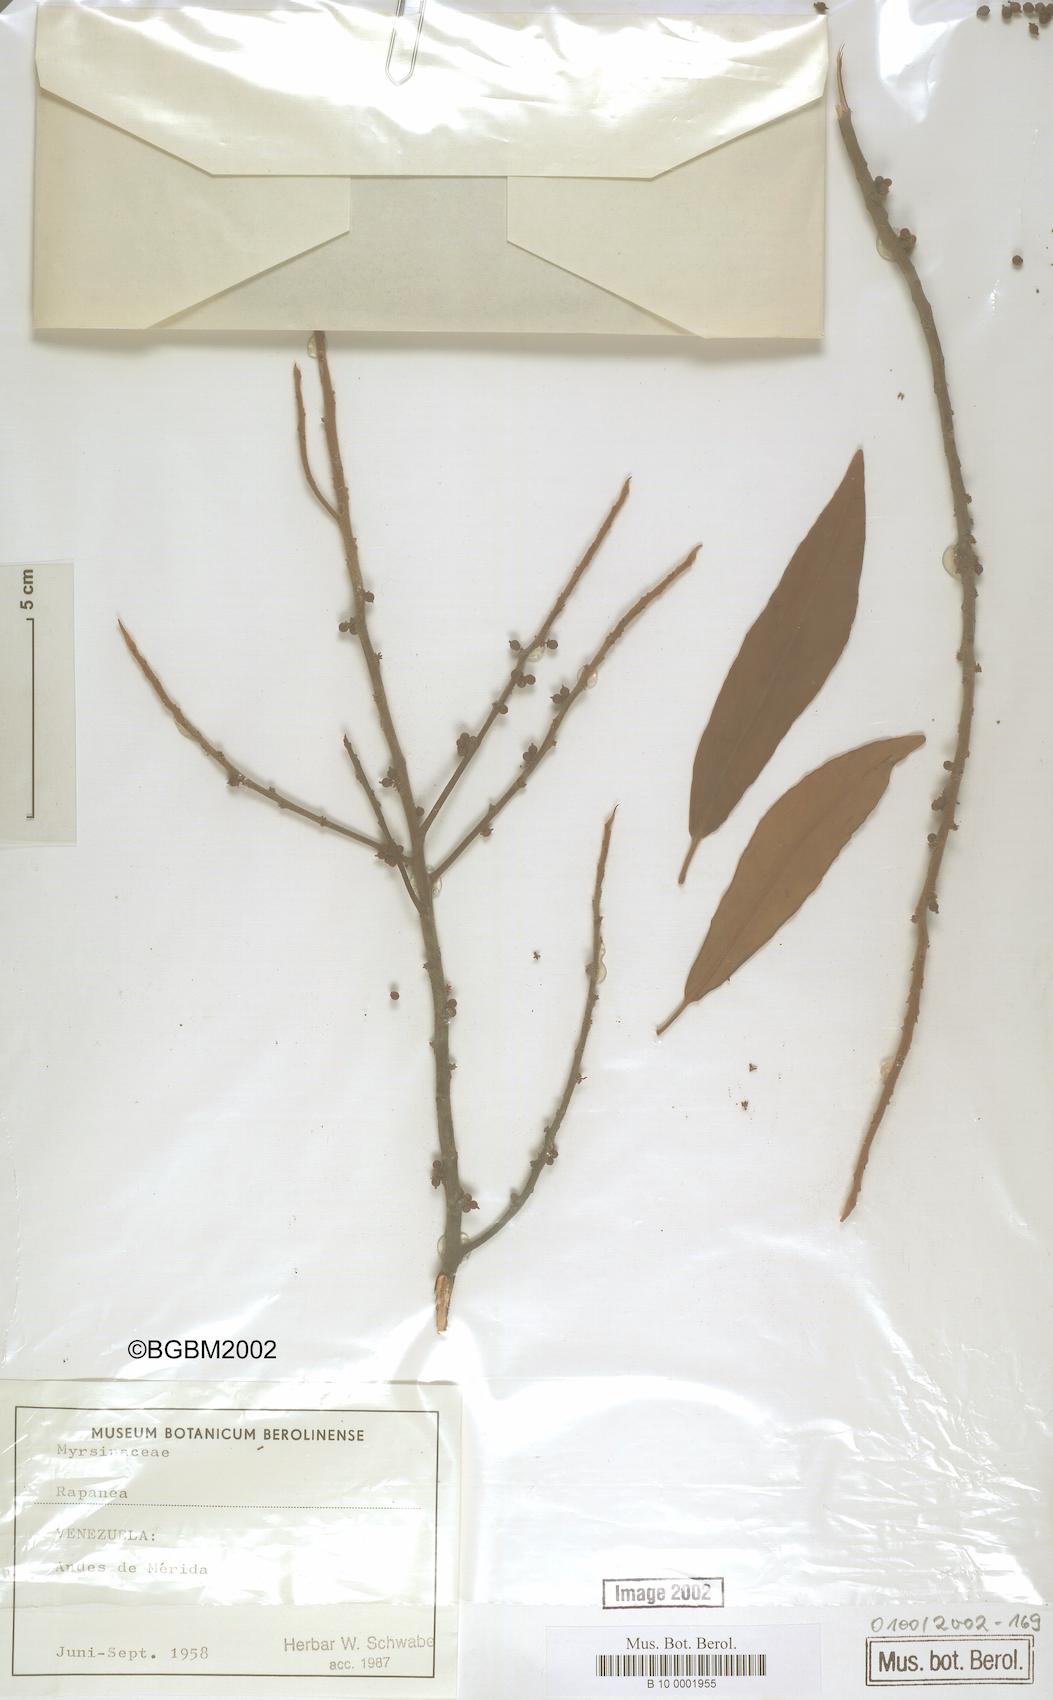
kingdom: Plantae
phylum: Tracheophyta
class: Magnoliopsida
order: Ericales
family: Primulaceae
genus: Myrsine
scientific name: Myrsine
